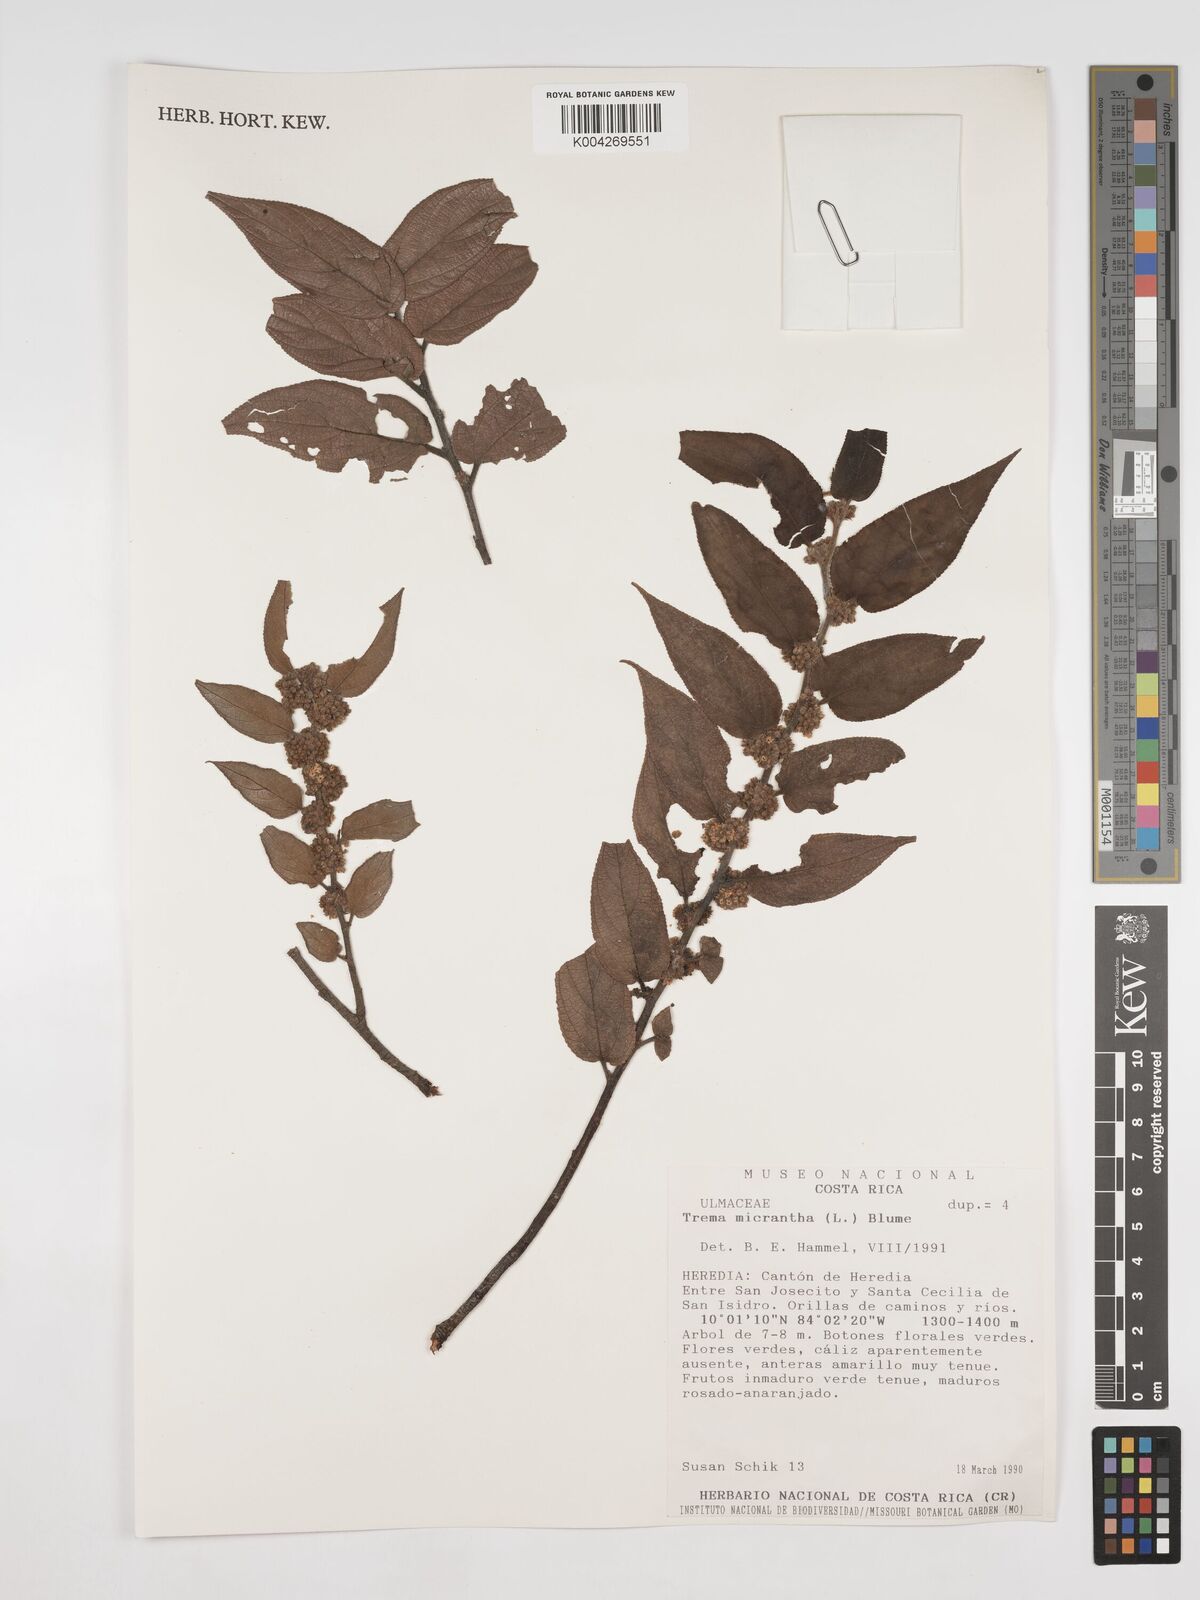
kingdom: Plantae
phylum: Tracheophyta
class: Magnoliopsida
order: Rosales
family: Cannabaceae
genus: Trema
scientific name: Trema micranthum
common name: Jamaican nettletree
